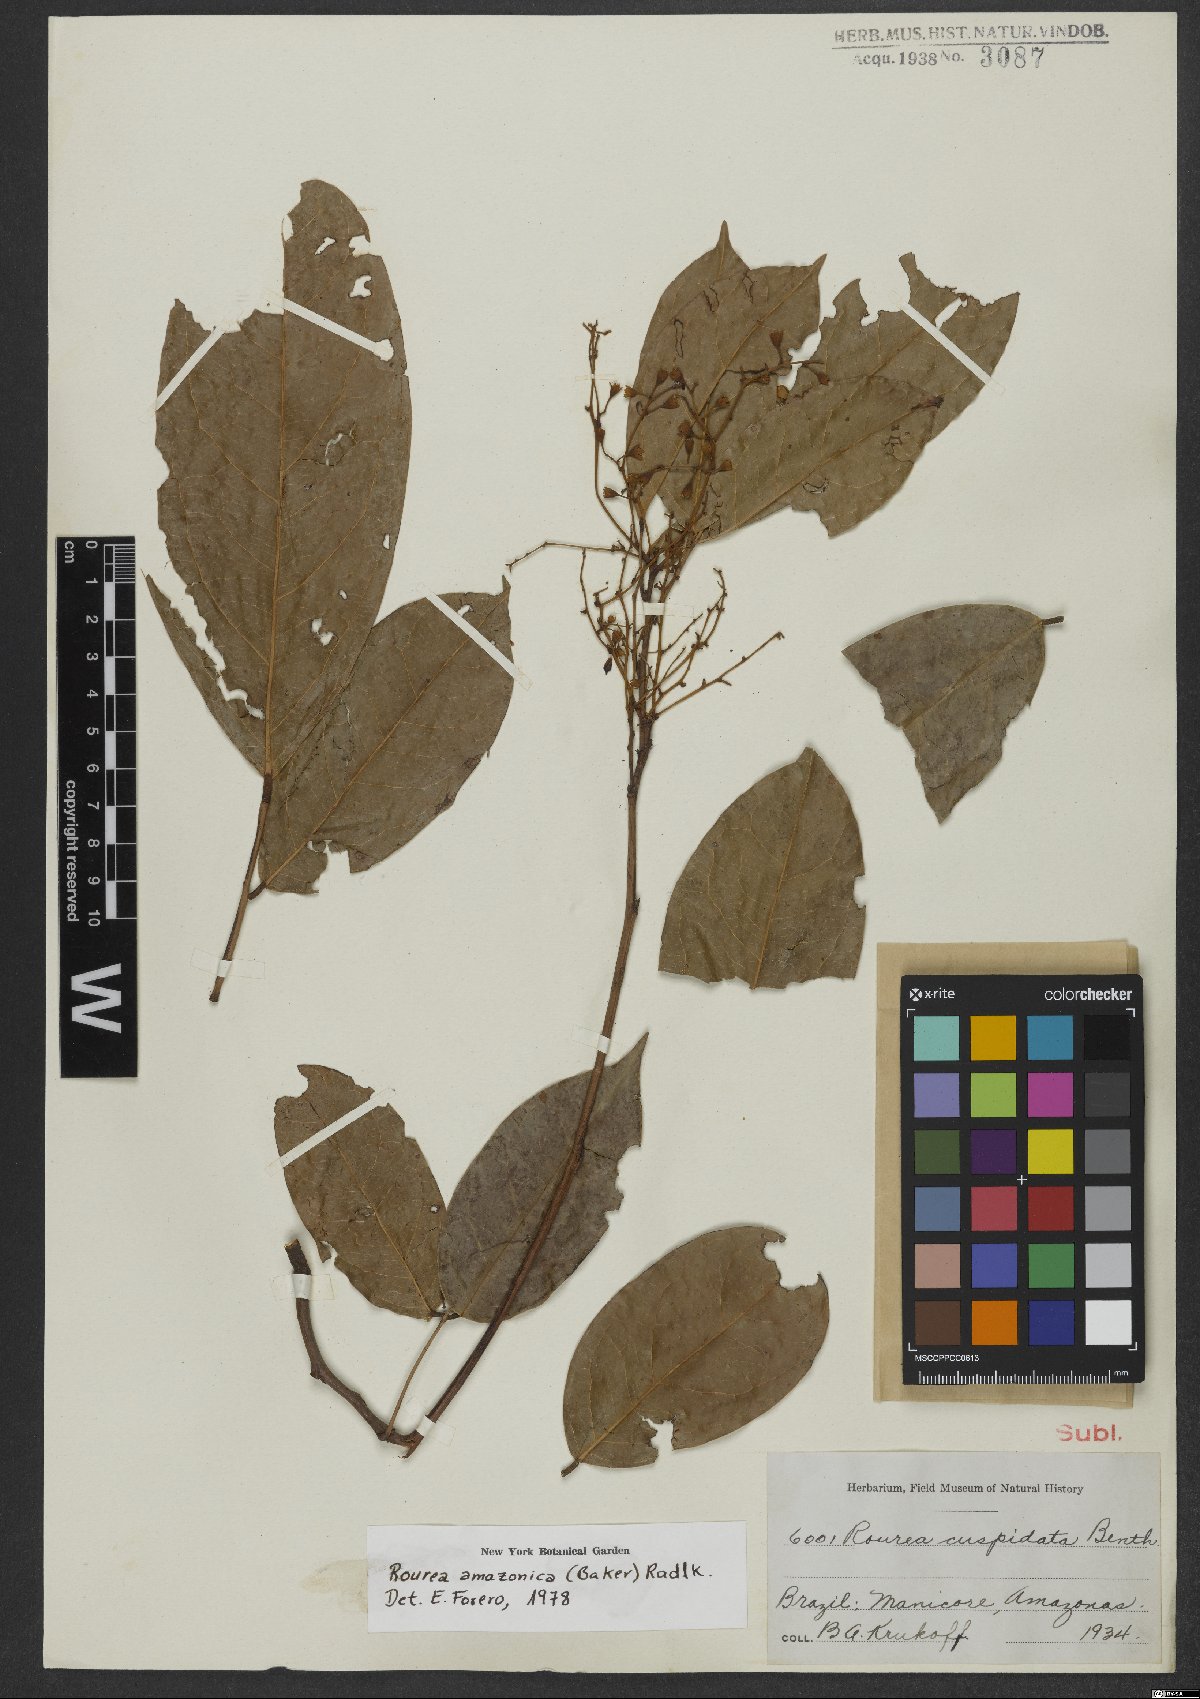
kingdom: Plantae
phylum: Tracheophyta
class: Magnoliopsida
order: Oxalidales
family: Connaraceae
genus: Rourea
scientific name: Rourea amazonica
